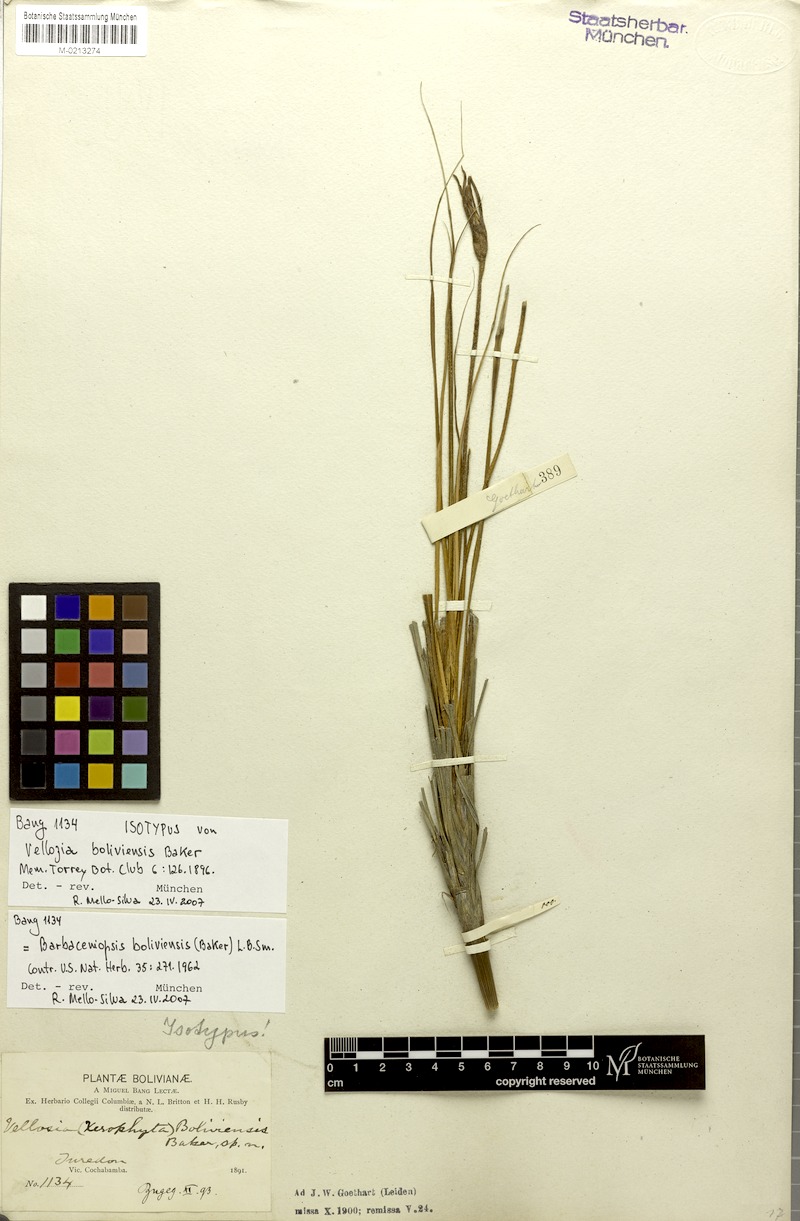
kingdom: Plantae
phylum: Tracheophyta
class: Liliopsida
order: Pandanales
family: Velloziaceae
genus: Barbaceniopsis
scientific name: Barbaceniopsis boliviensis
